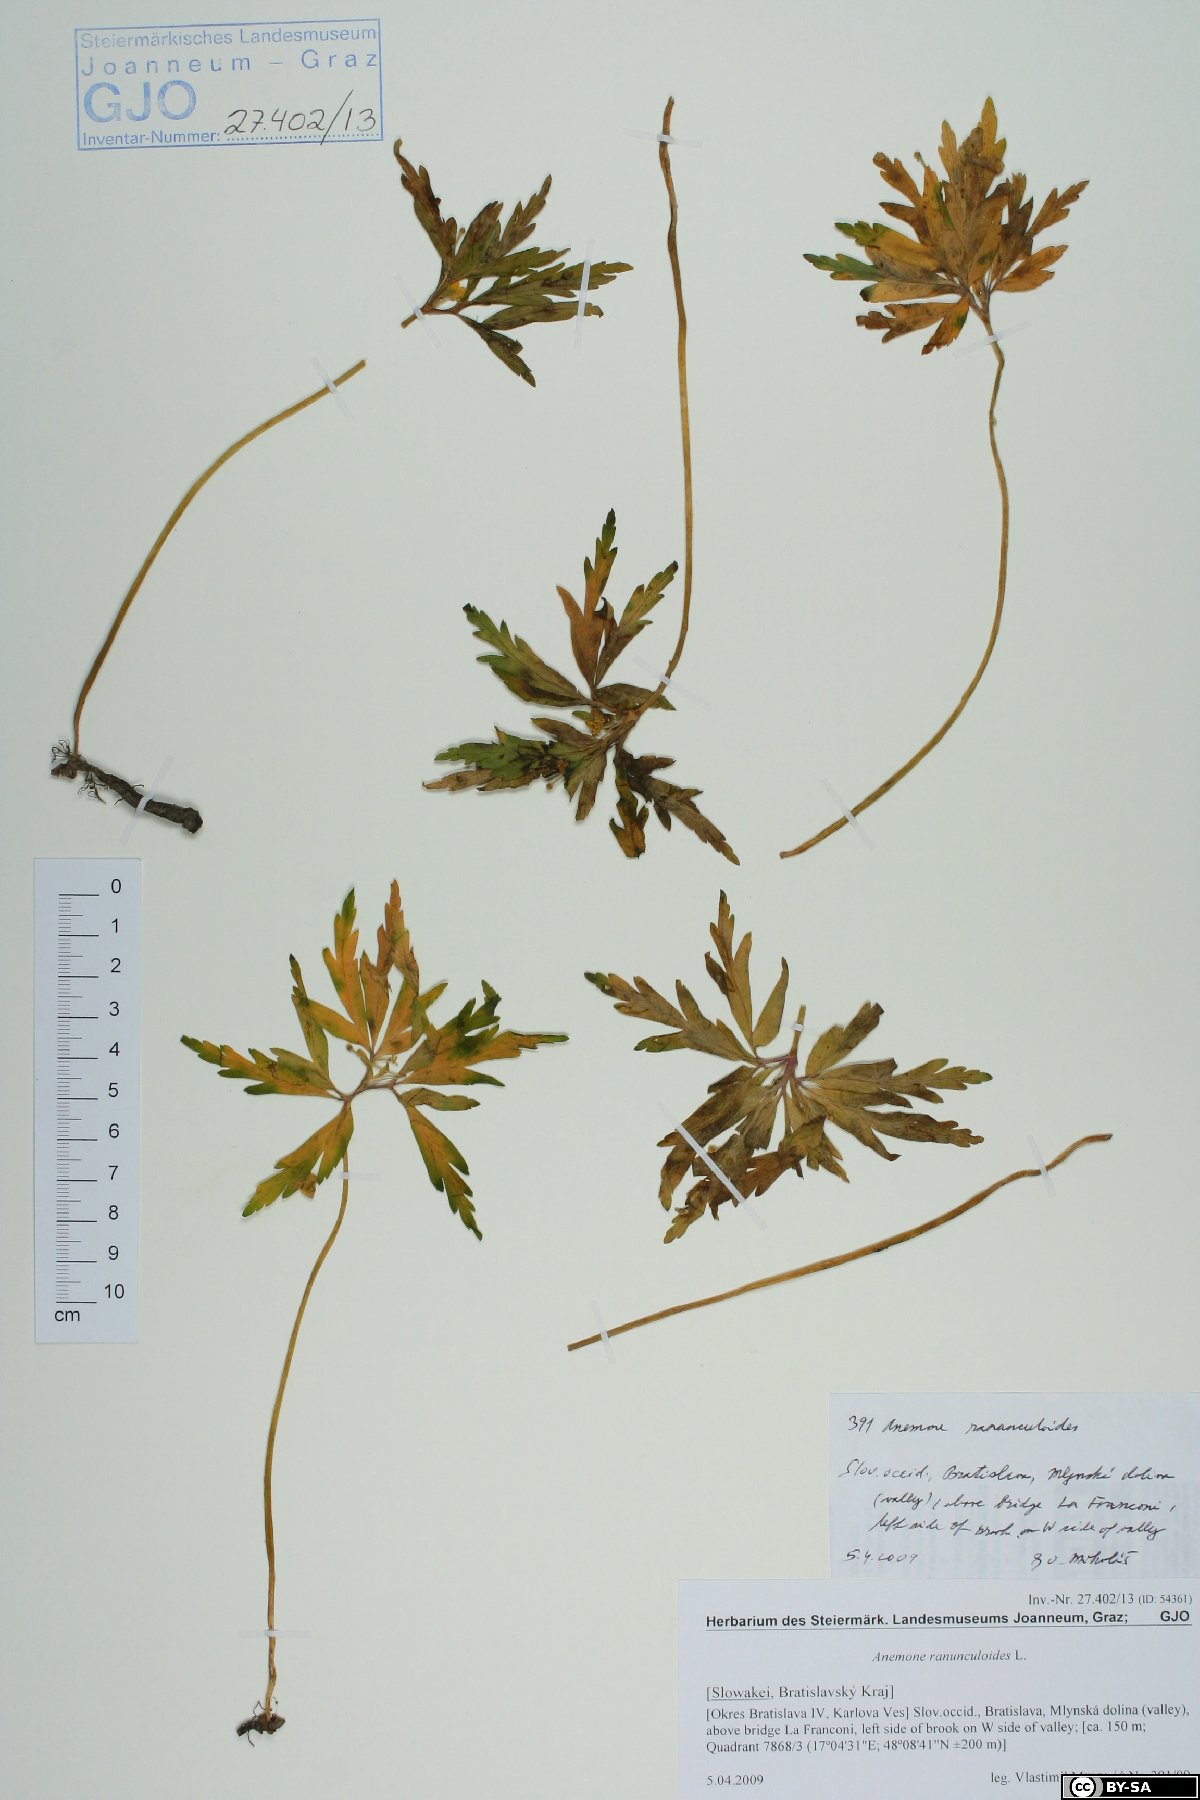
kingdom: Plantae
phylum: Tracheophyta
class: Magnoliopsida
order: Ranunculales
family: Ranunculaceae
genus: Anemone
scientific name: Anemone ranunculoides
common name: Yellow anemone
